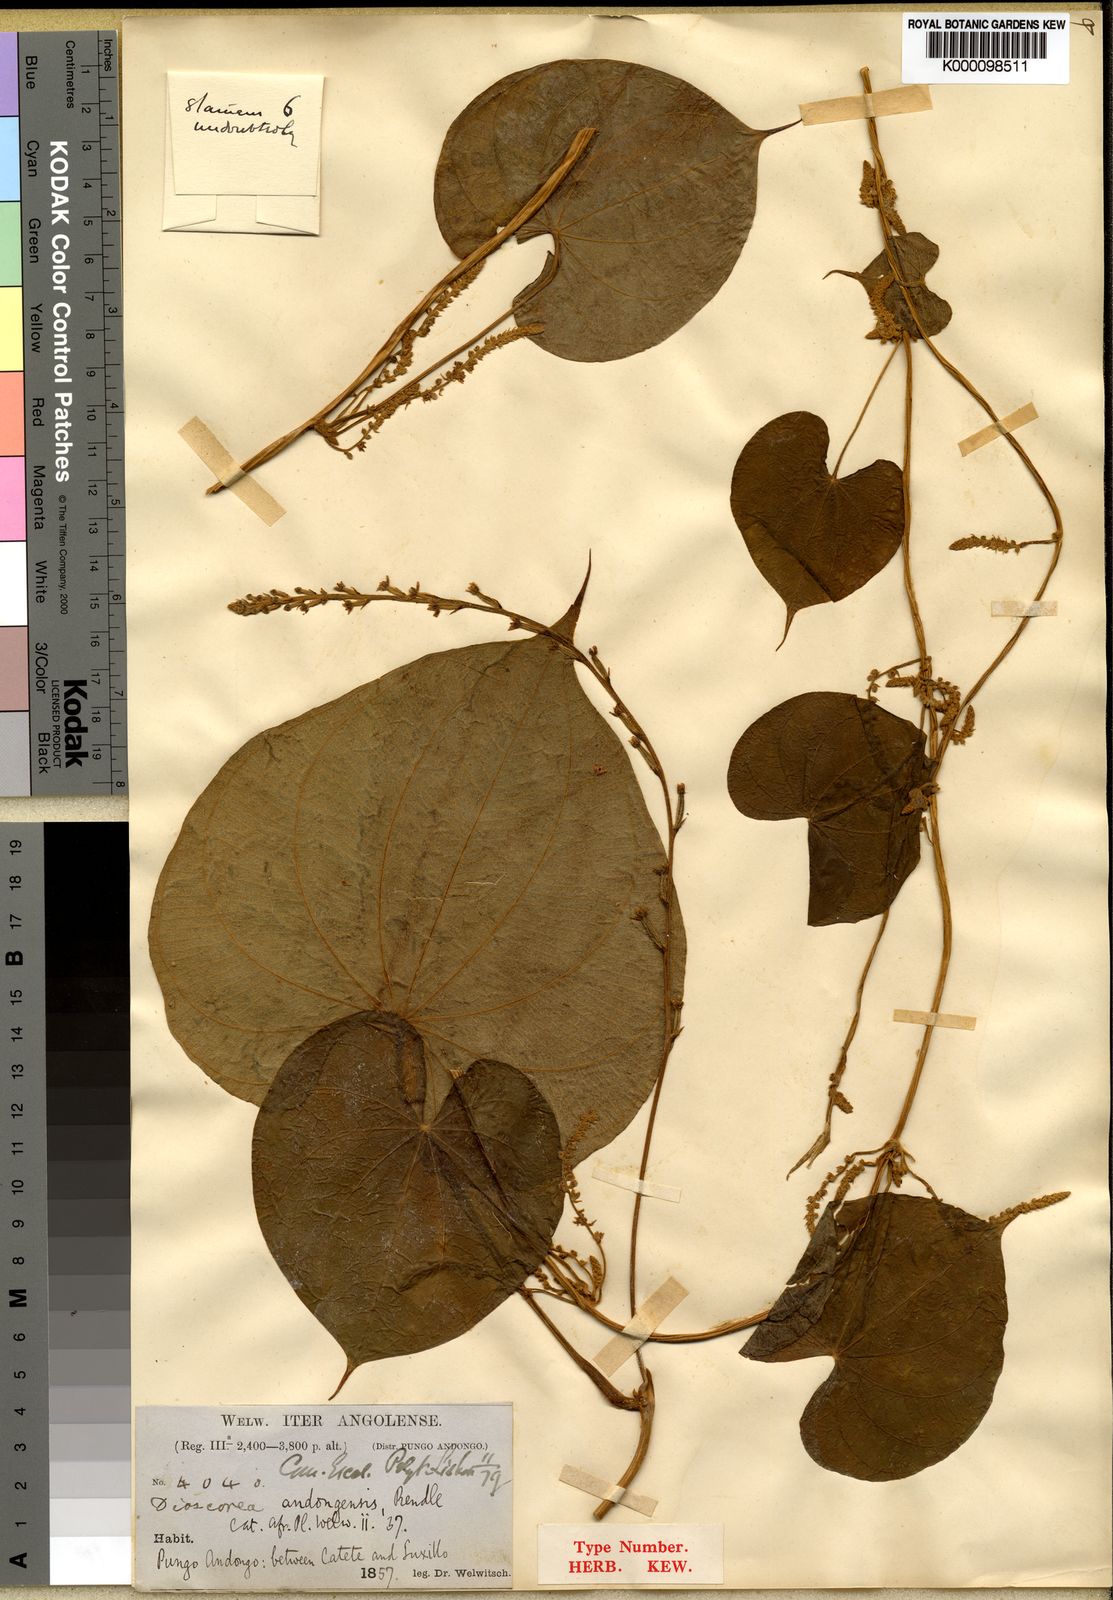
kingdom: Plantae
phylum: Tracheophyta
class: Liliopsida
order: Dioscoreales
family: Dioscoreaceae
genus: Dioscorea
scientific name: Dioscorea preussii
